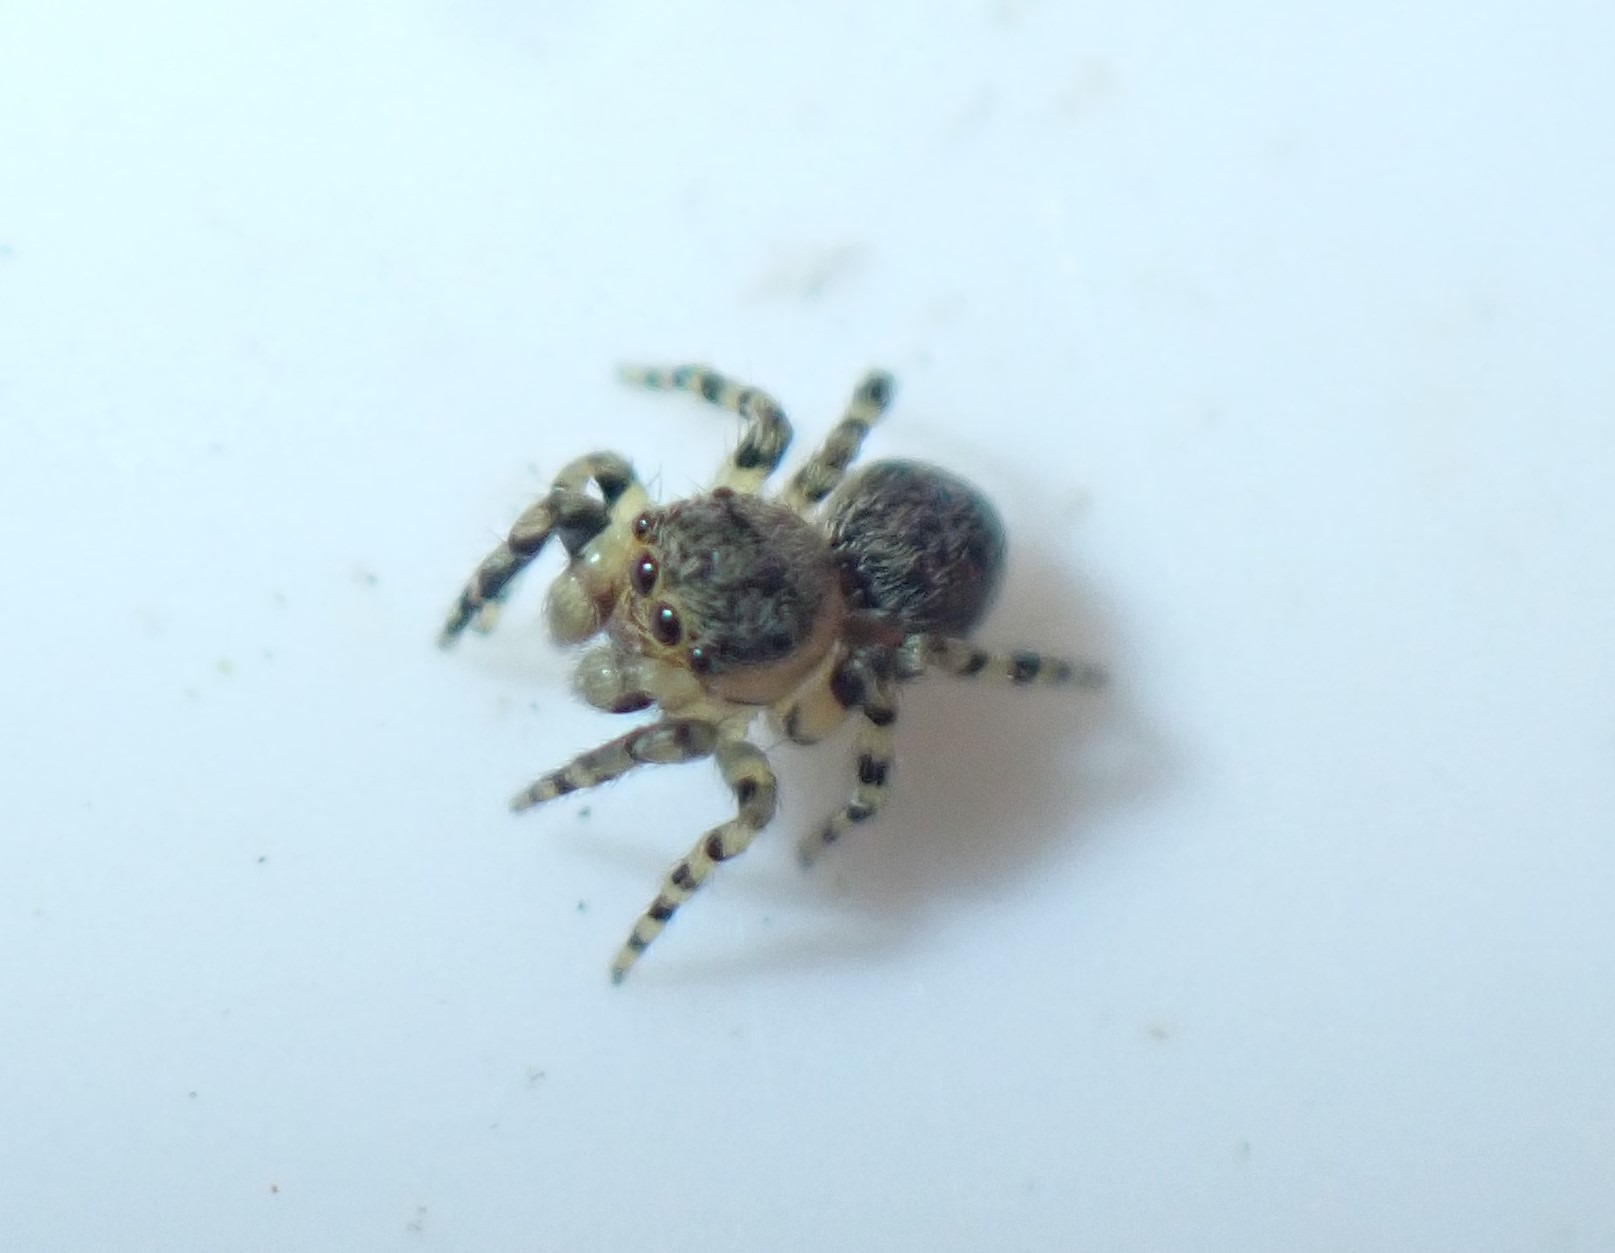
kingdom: Animalia
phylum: Arthropoda
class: Arachnida
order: Araneae
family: Salticidae
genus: Talavera
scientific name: Talavera aequipes
